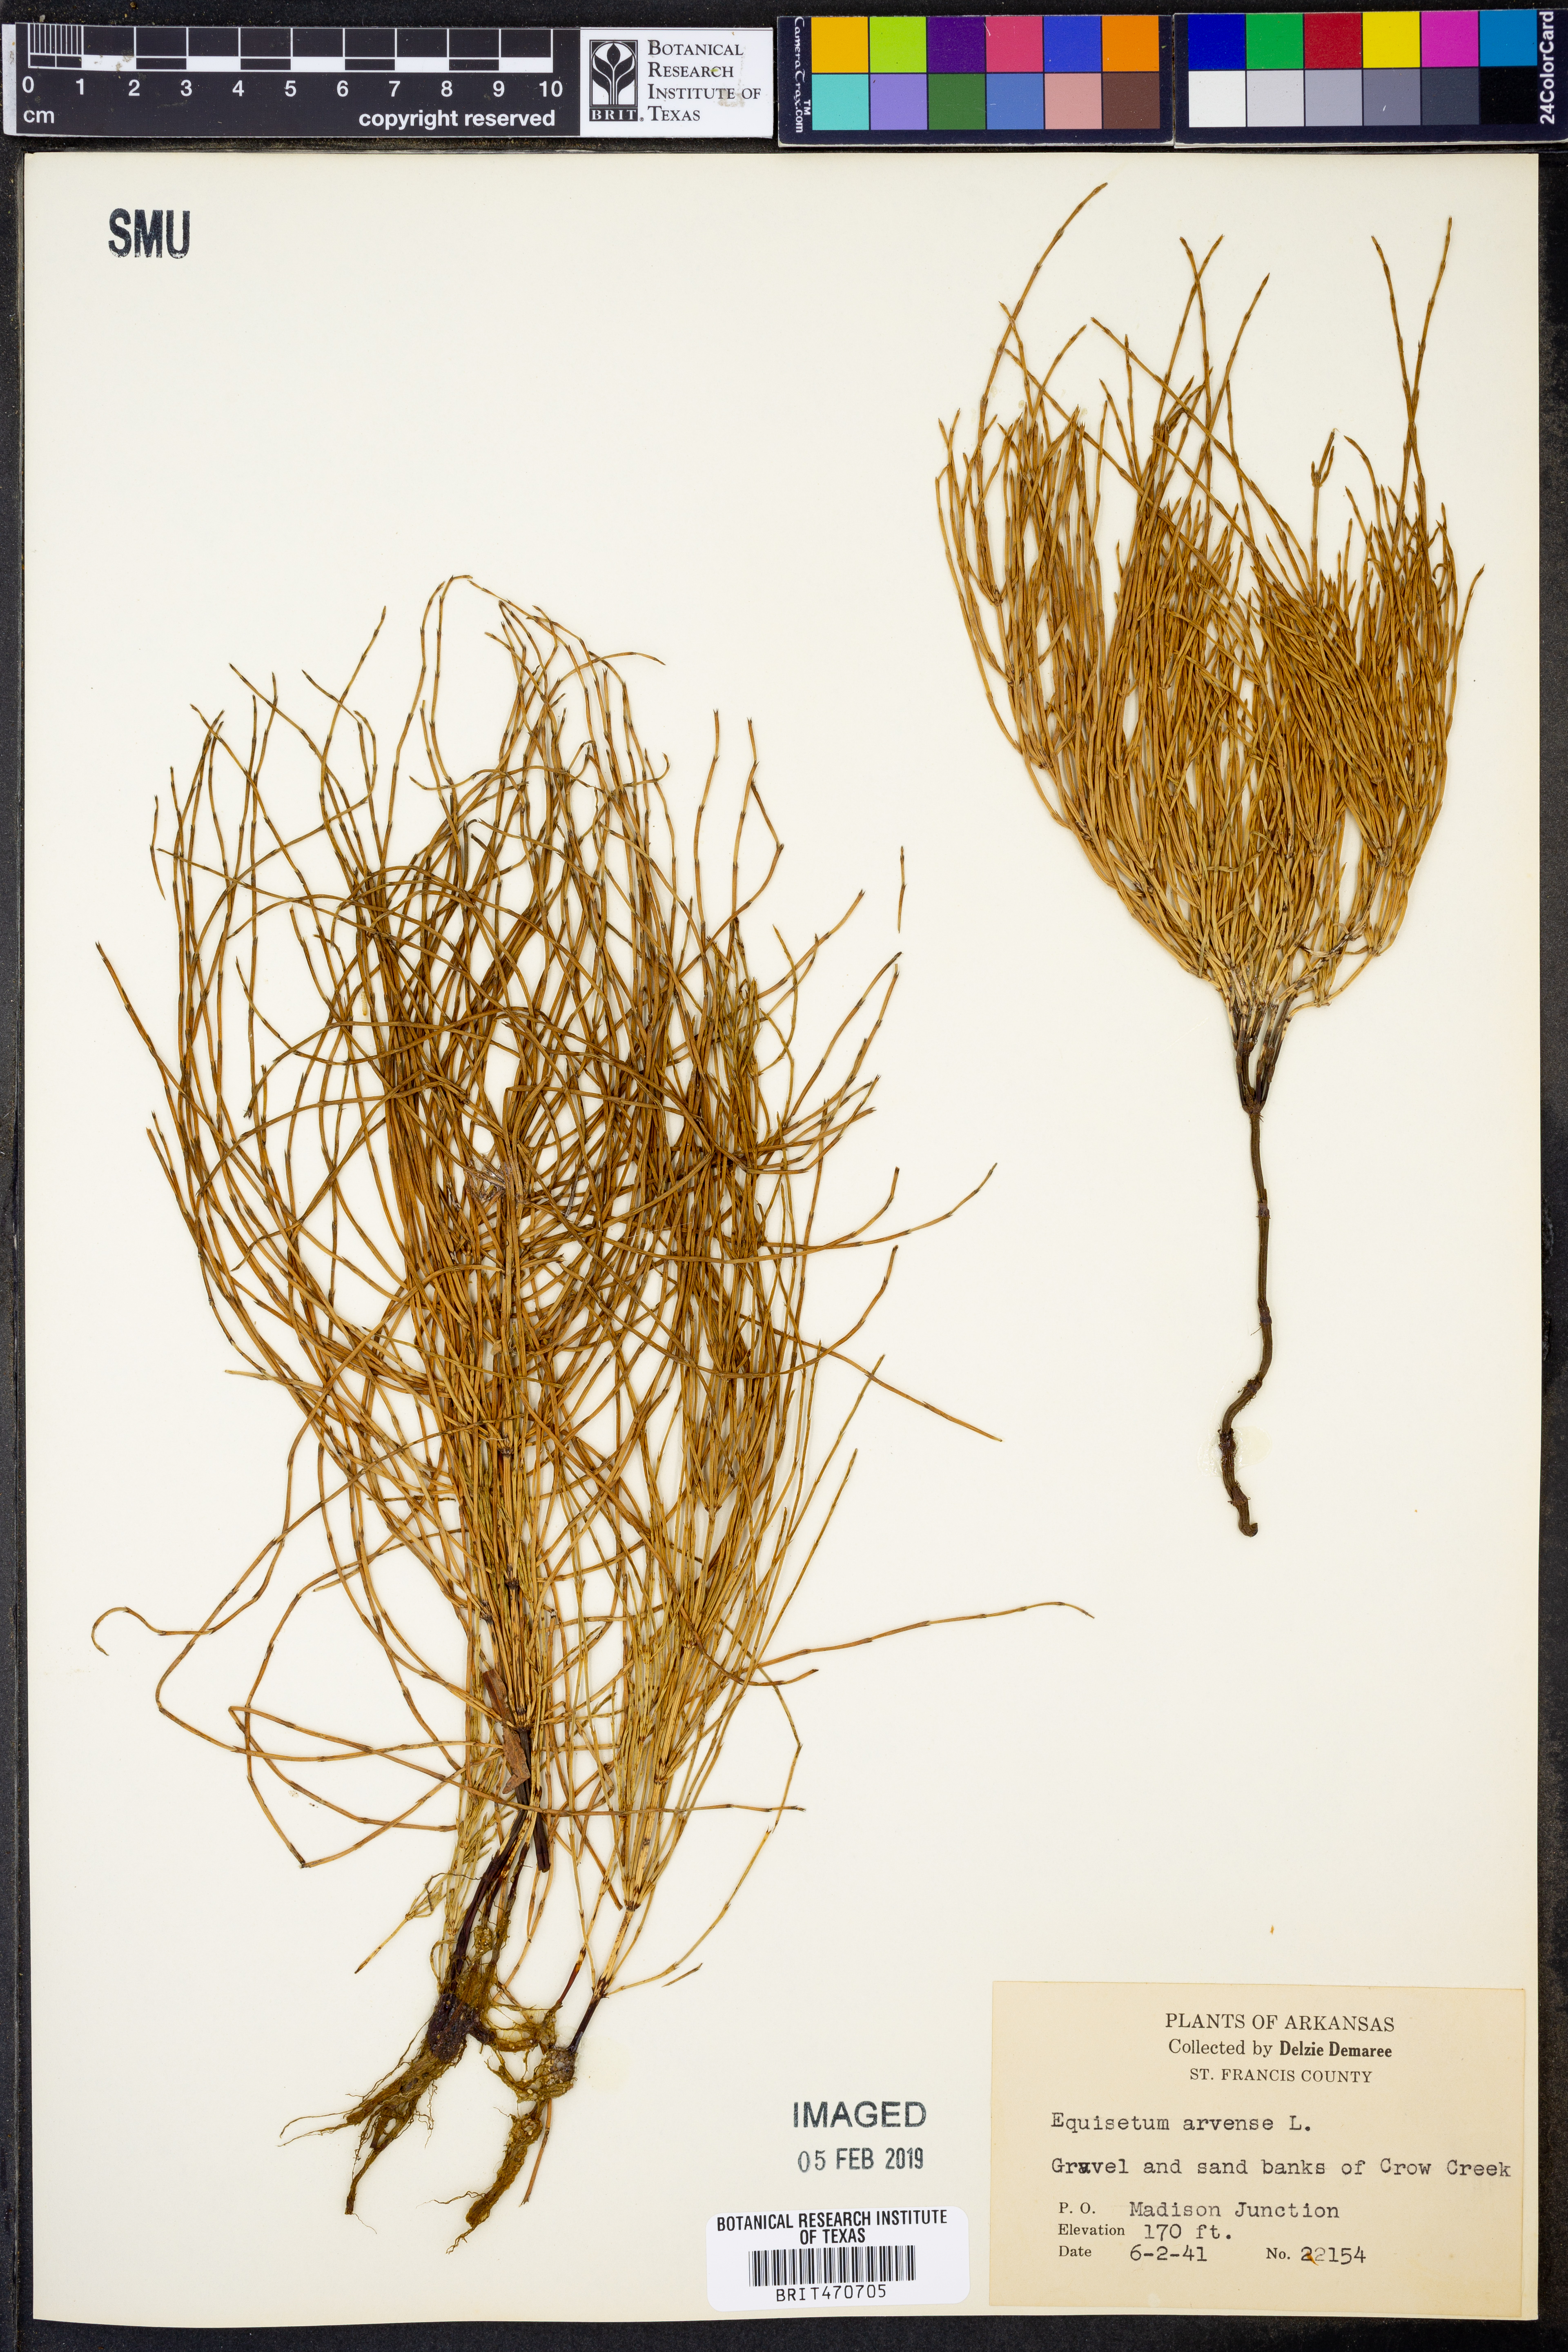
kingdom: Plantae
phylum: Tracheophyta
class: Polypodiopsida
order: Equisetales
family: Equisetaceae
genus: Equisetum
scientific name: Equisetum arvense
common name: Field horsetail
